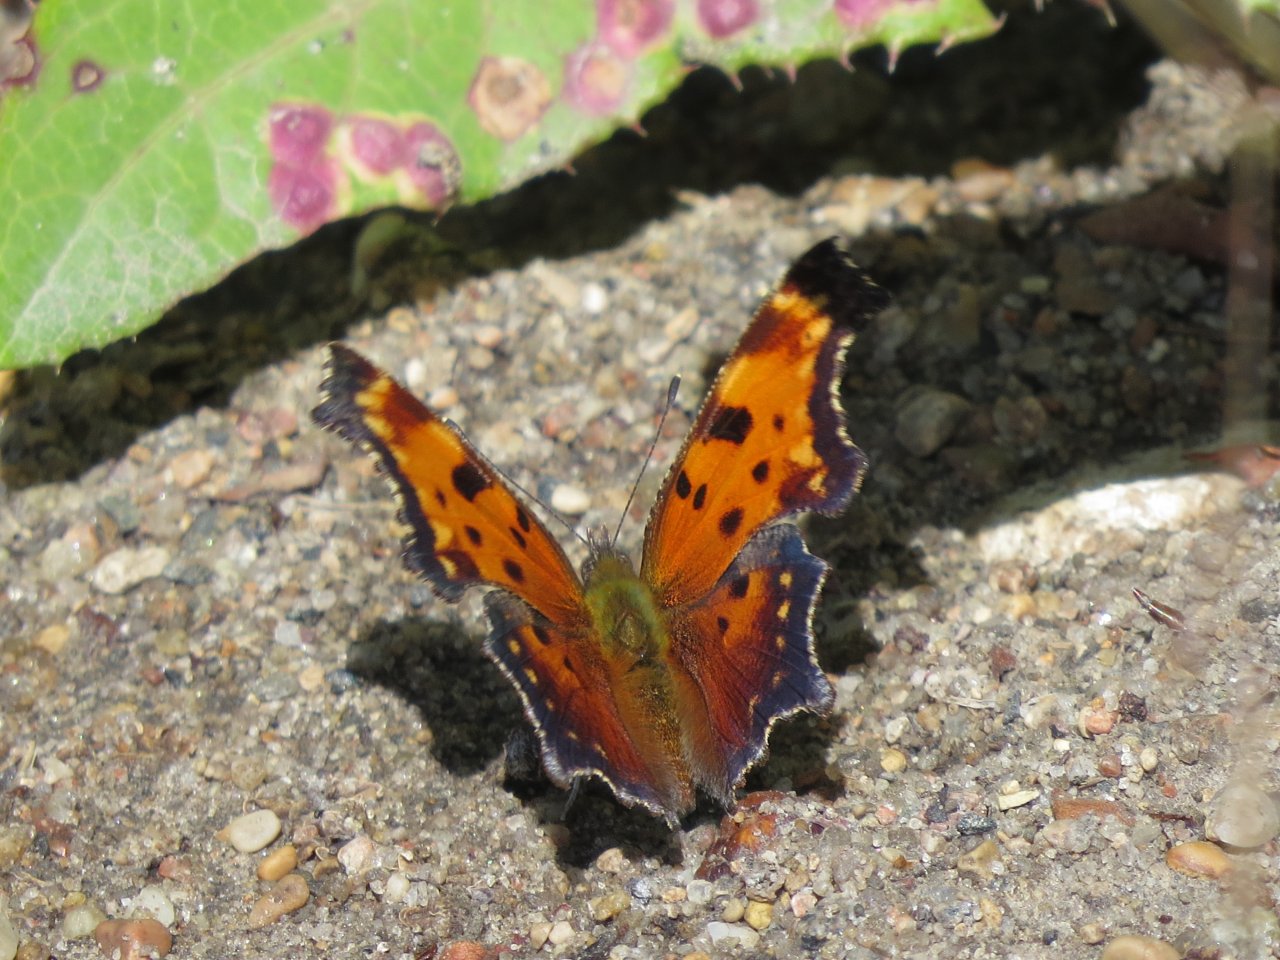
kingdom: Animalia
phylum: Arthropoda
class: Insecta
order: Lepidoptera
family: Nymphalidae
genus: Polygonia
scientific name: Polygonia progne
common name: Gray Comma
